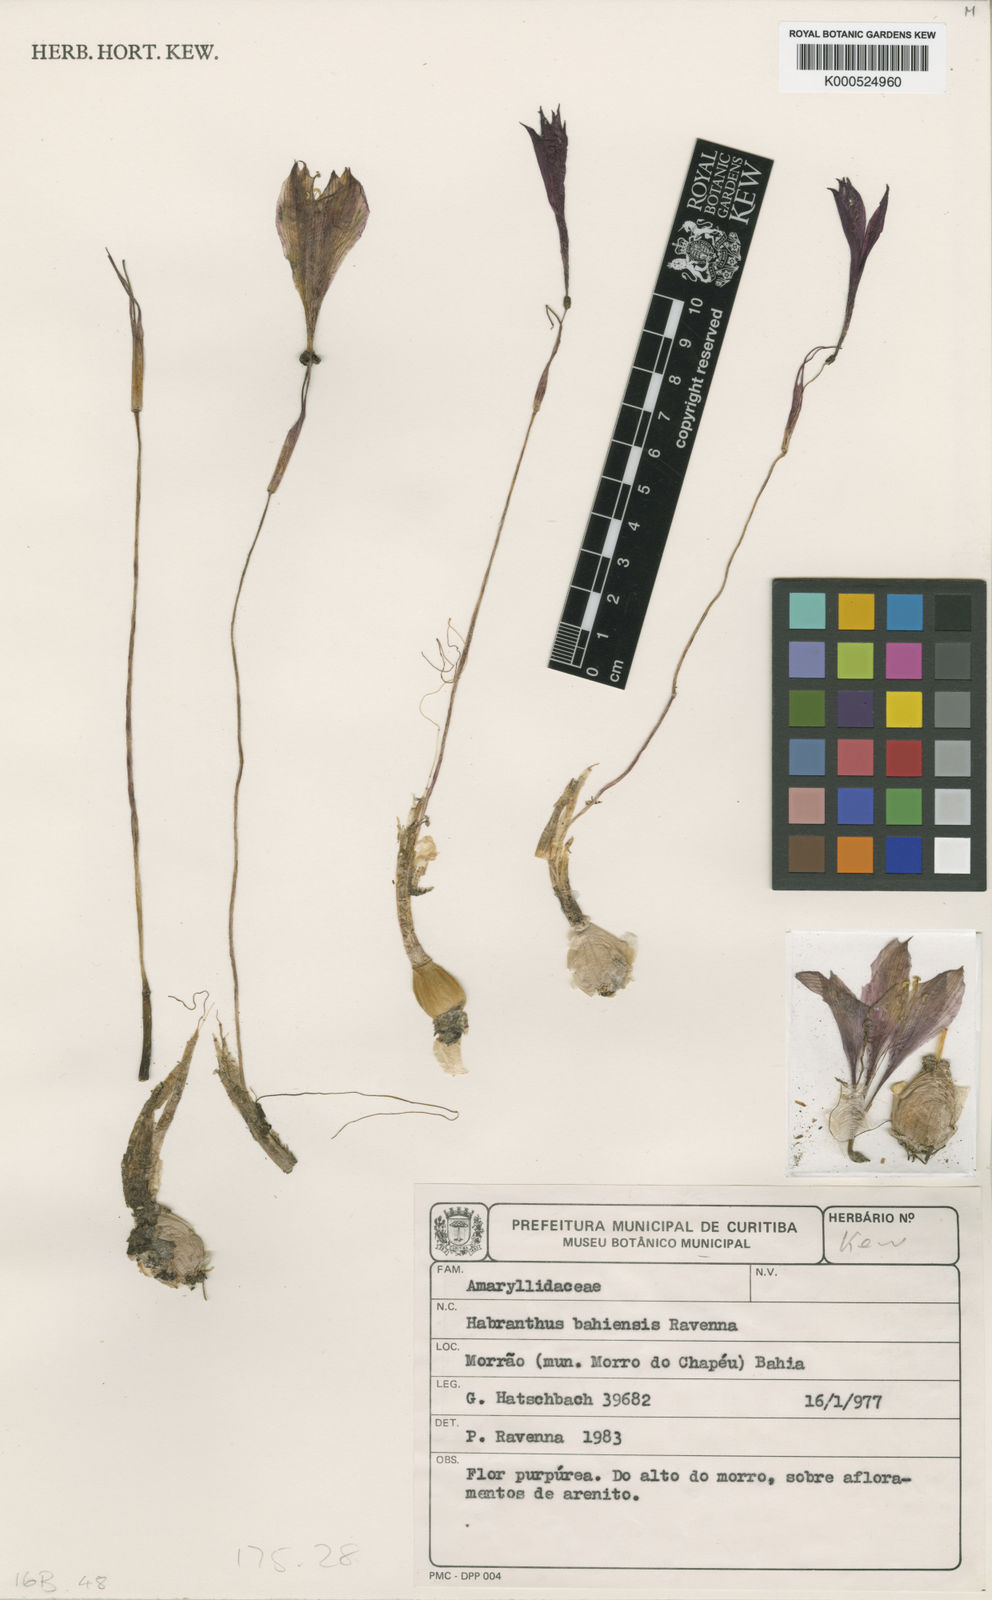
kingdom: Plantae
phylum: Tracheophyta
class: Liliopsida
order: Asparagales
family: Amaryllidaceae
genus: Zephyranthes
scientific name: Zephyranthes bahiensis
